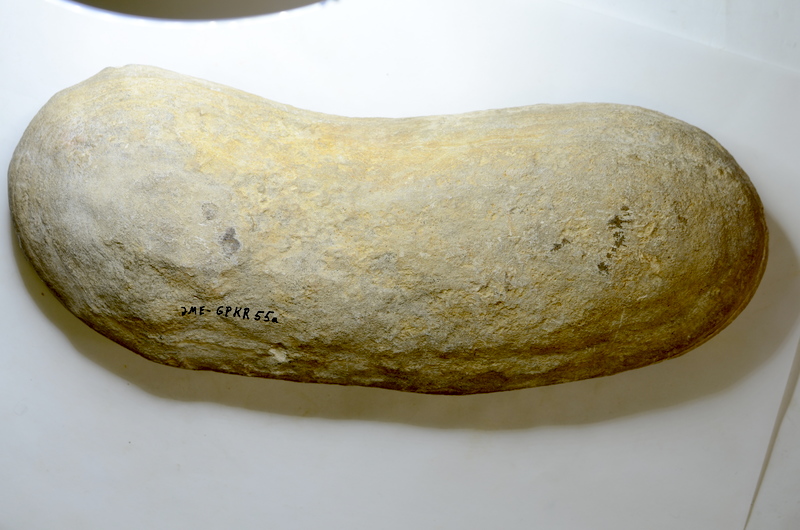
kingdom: Animalia
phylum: Chordata
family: Aspidorhynchidae
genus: Vinctifer
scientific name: Vinctifer
